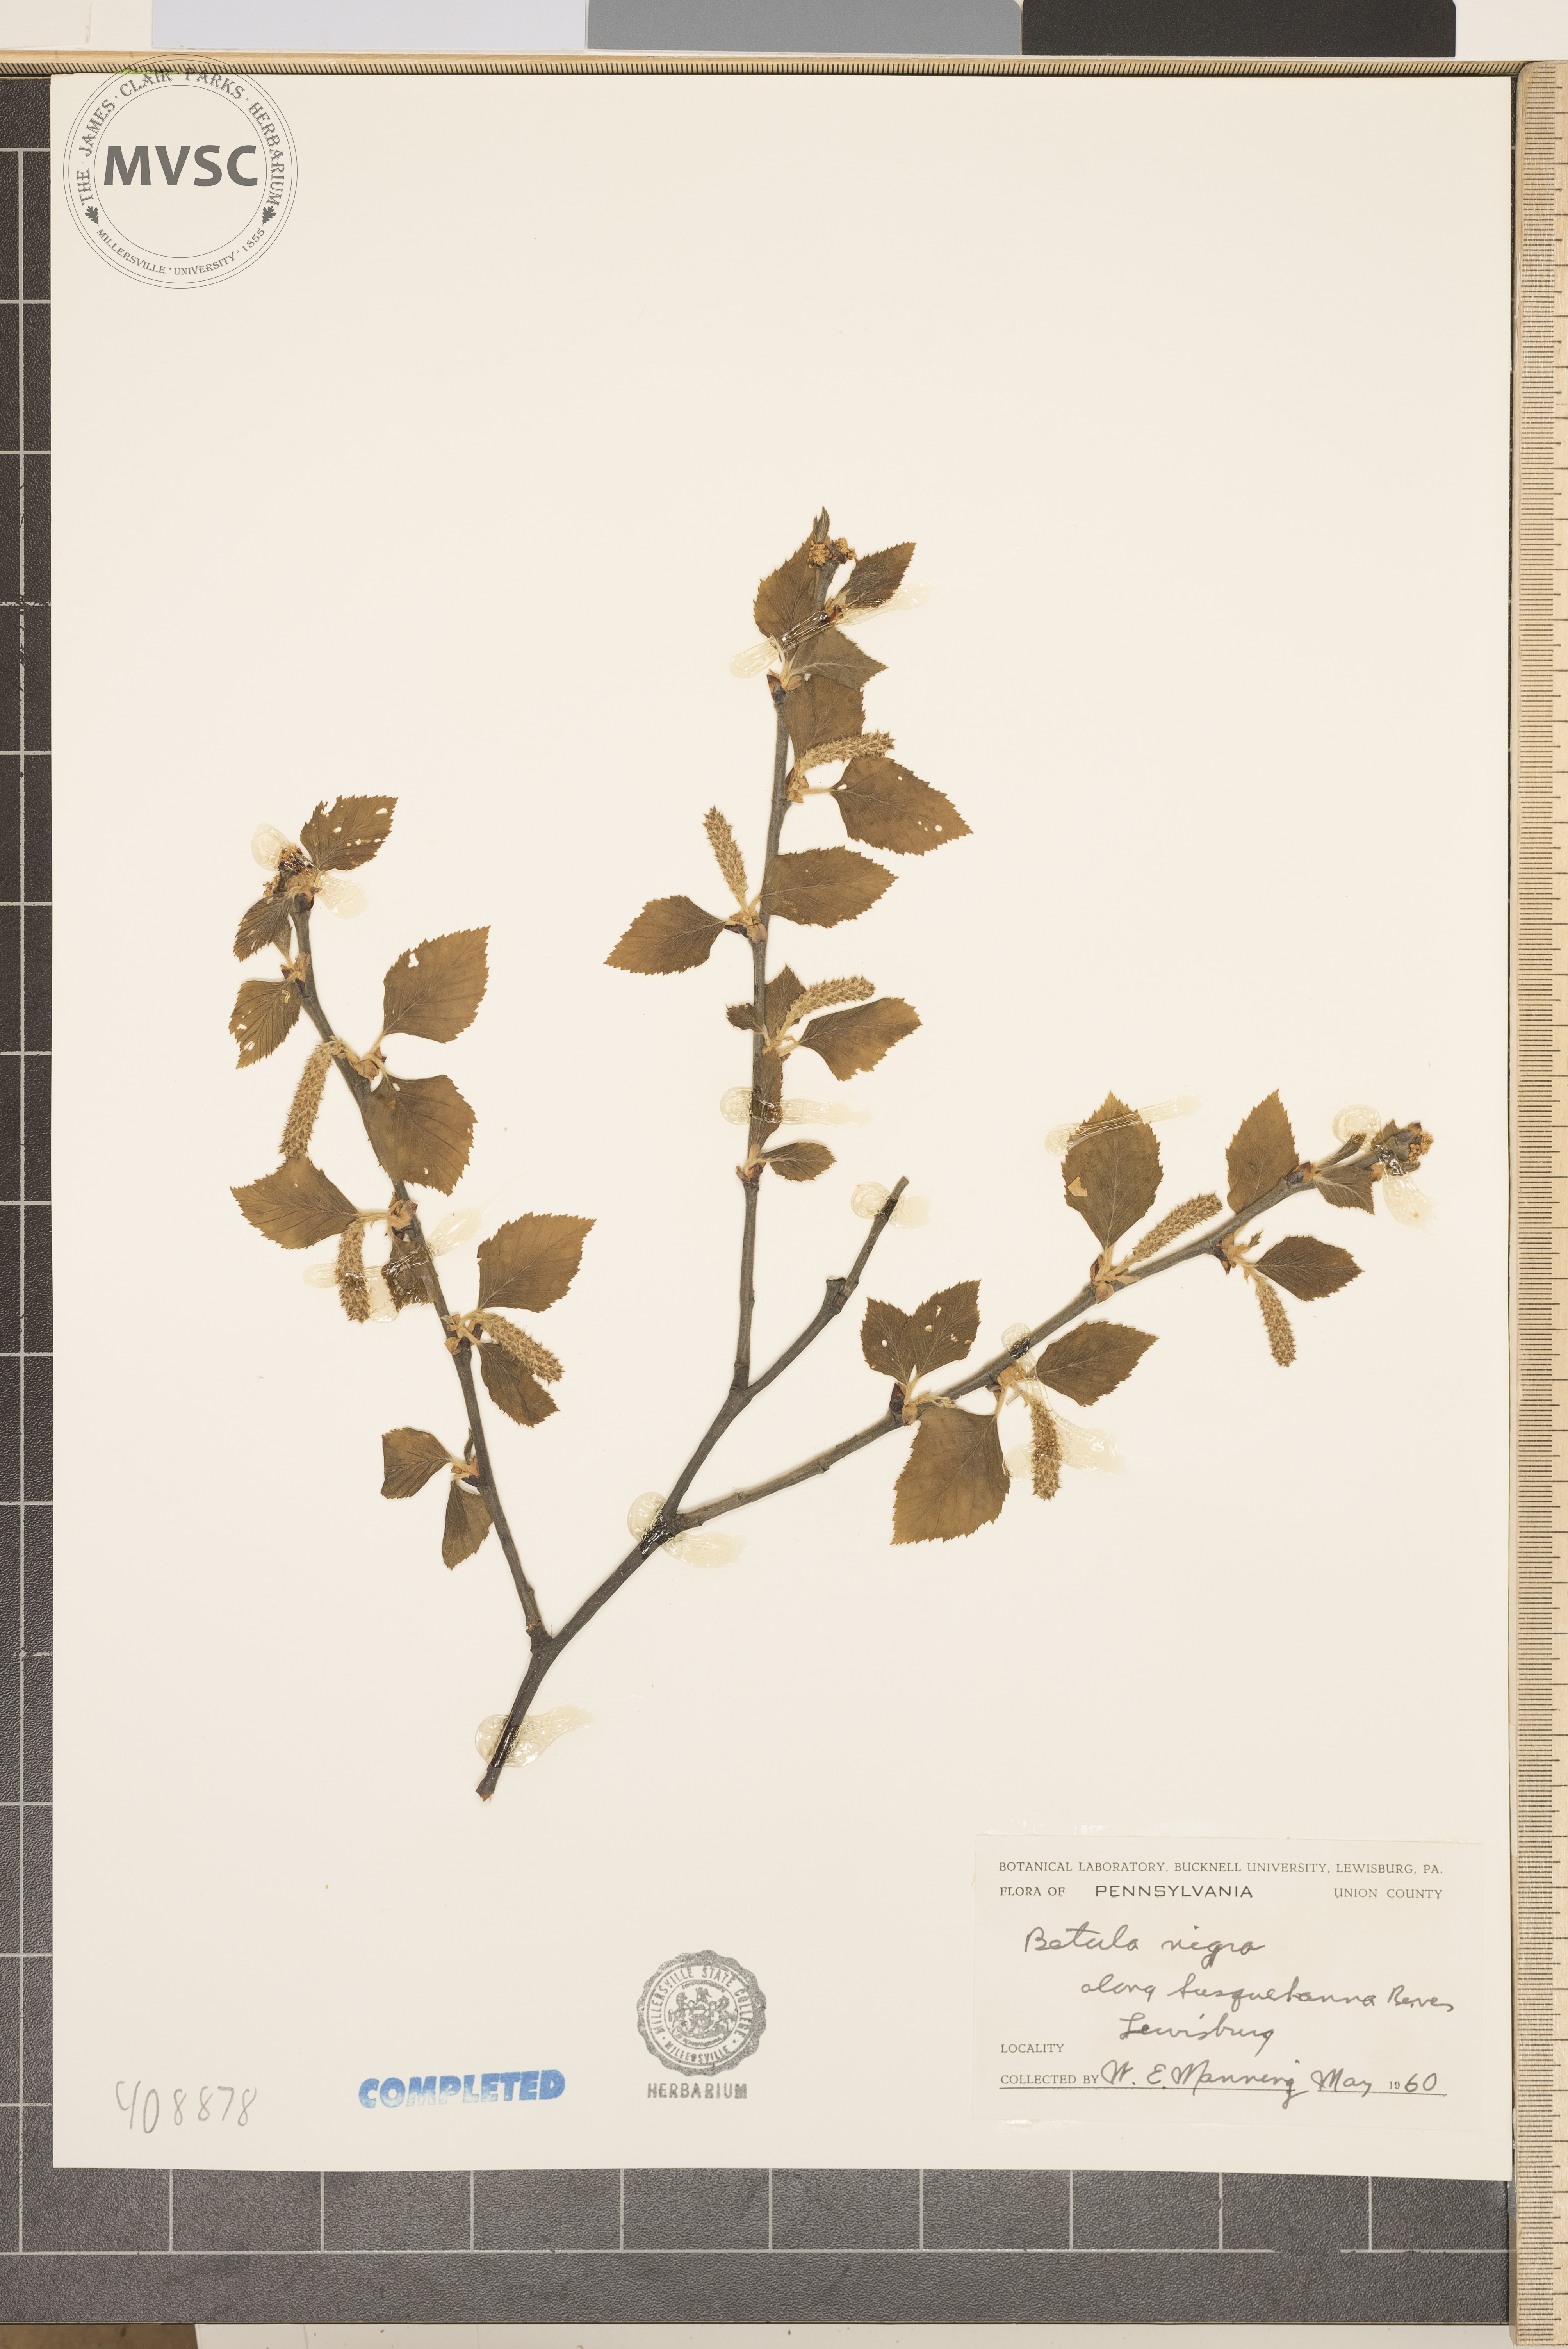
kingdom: Plantae
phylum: Tracheophyta
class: Magnoliopsida
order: Fagales
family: Betulaceae
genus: Betula
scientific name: Betula nigra
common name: river birch
